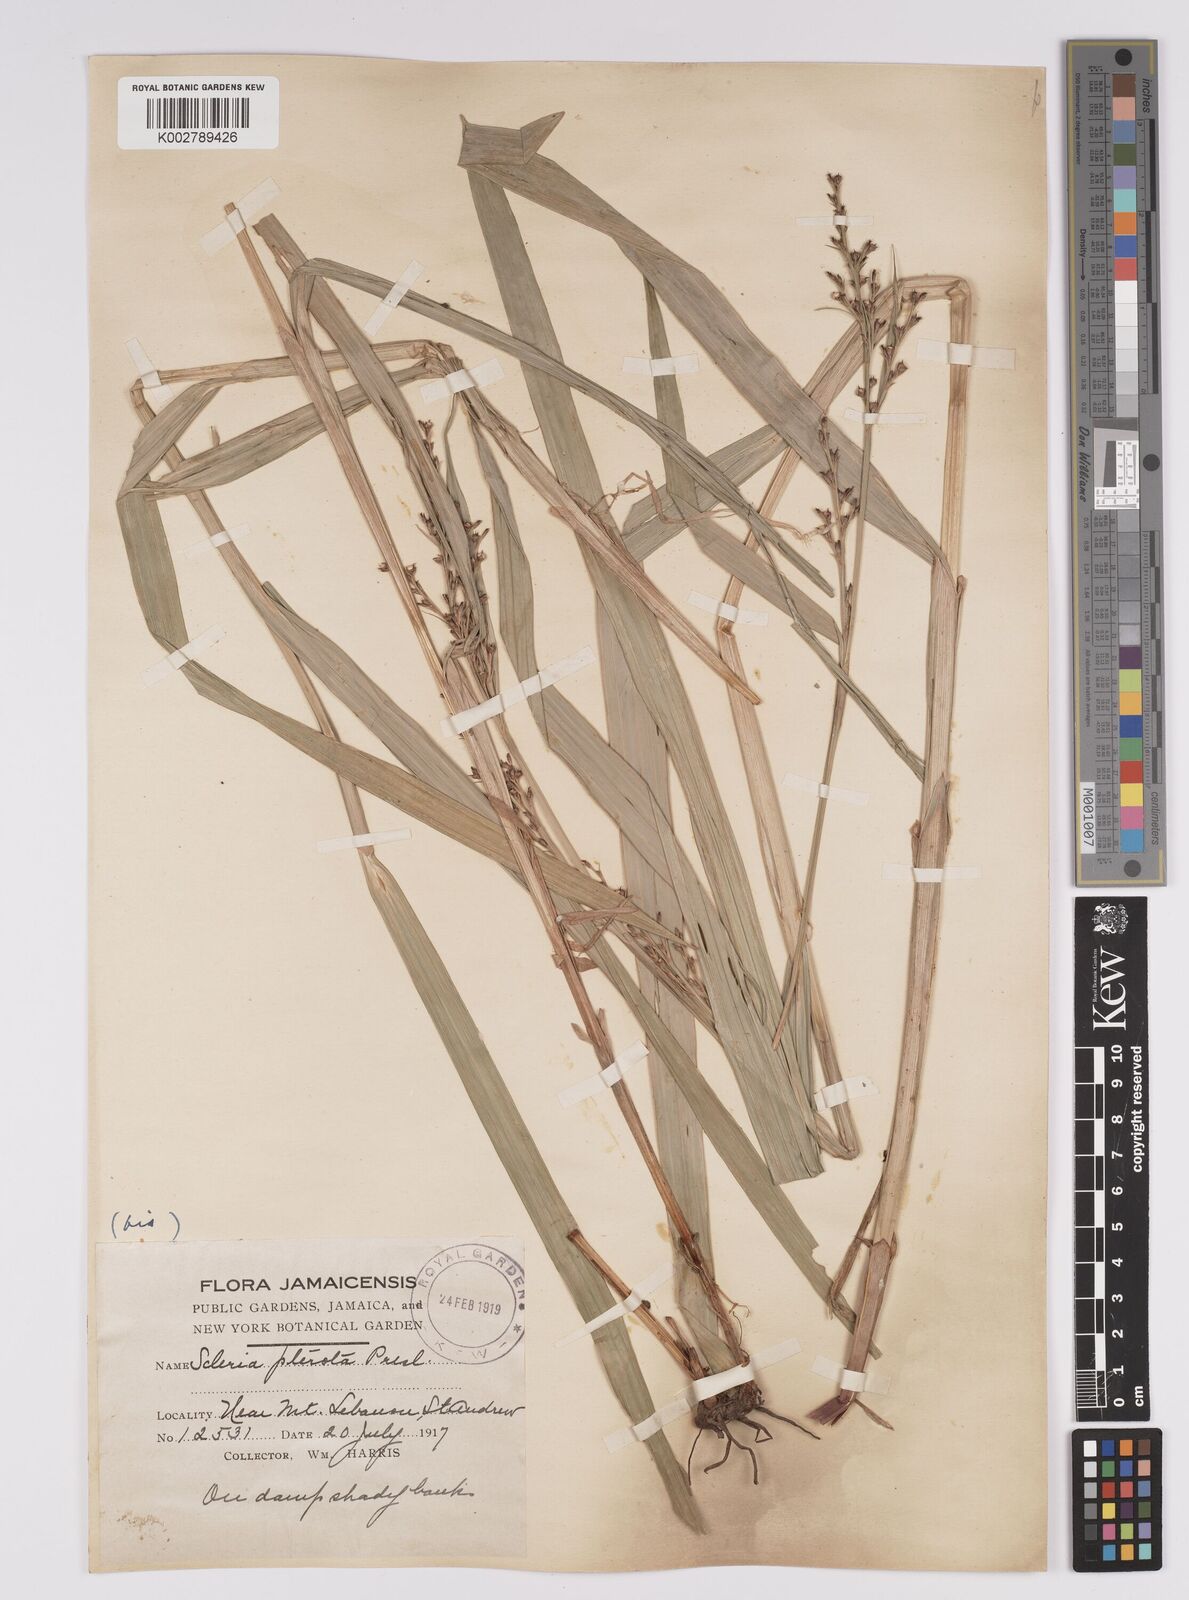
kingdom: Plantae
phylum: Tracheophyta
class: Liliopsida
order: Poales
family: Cyperaceae
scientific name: Cyperaceae
